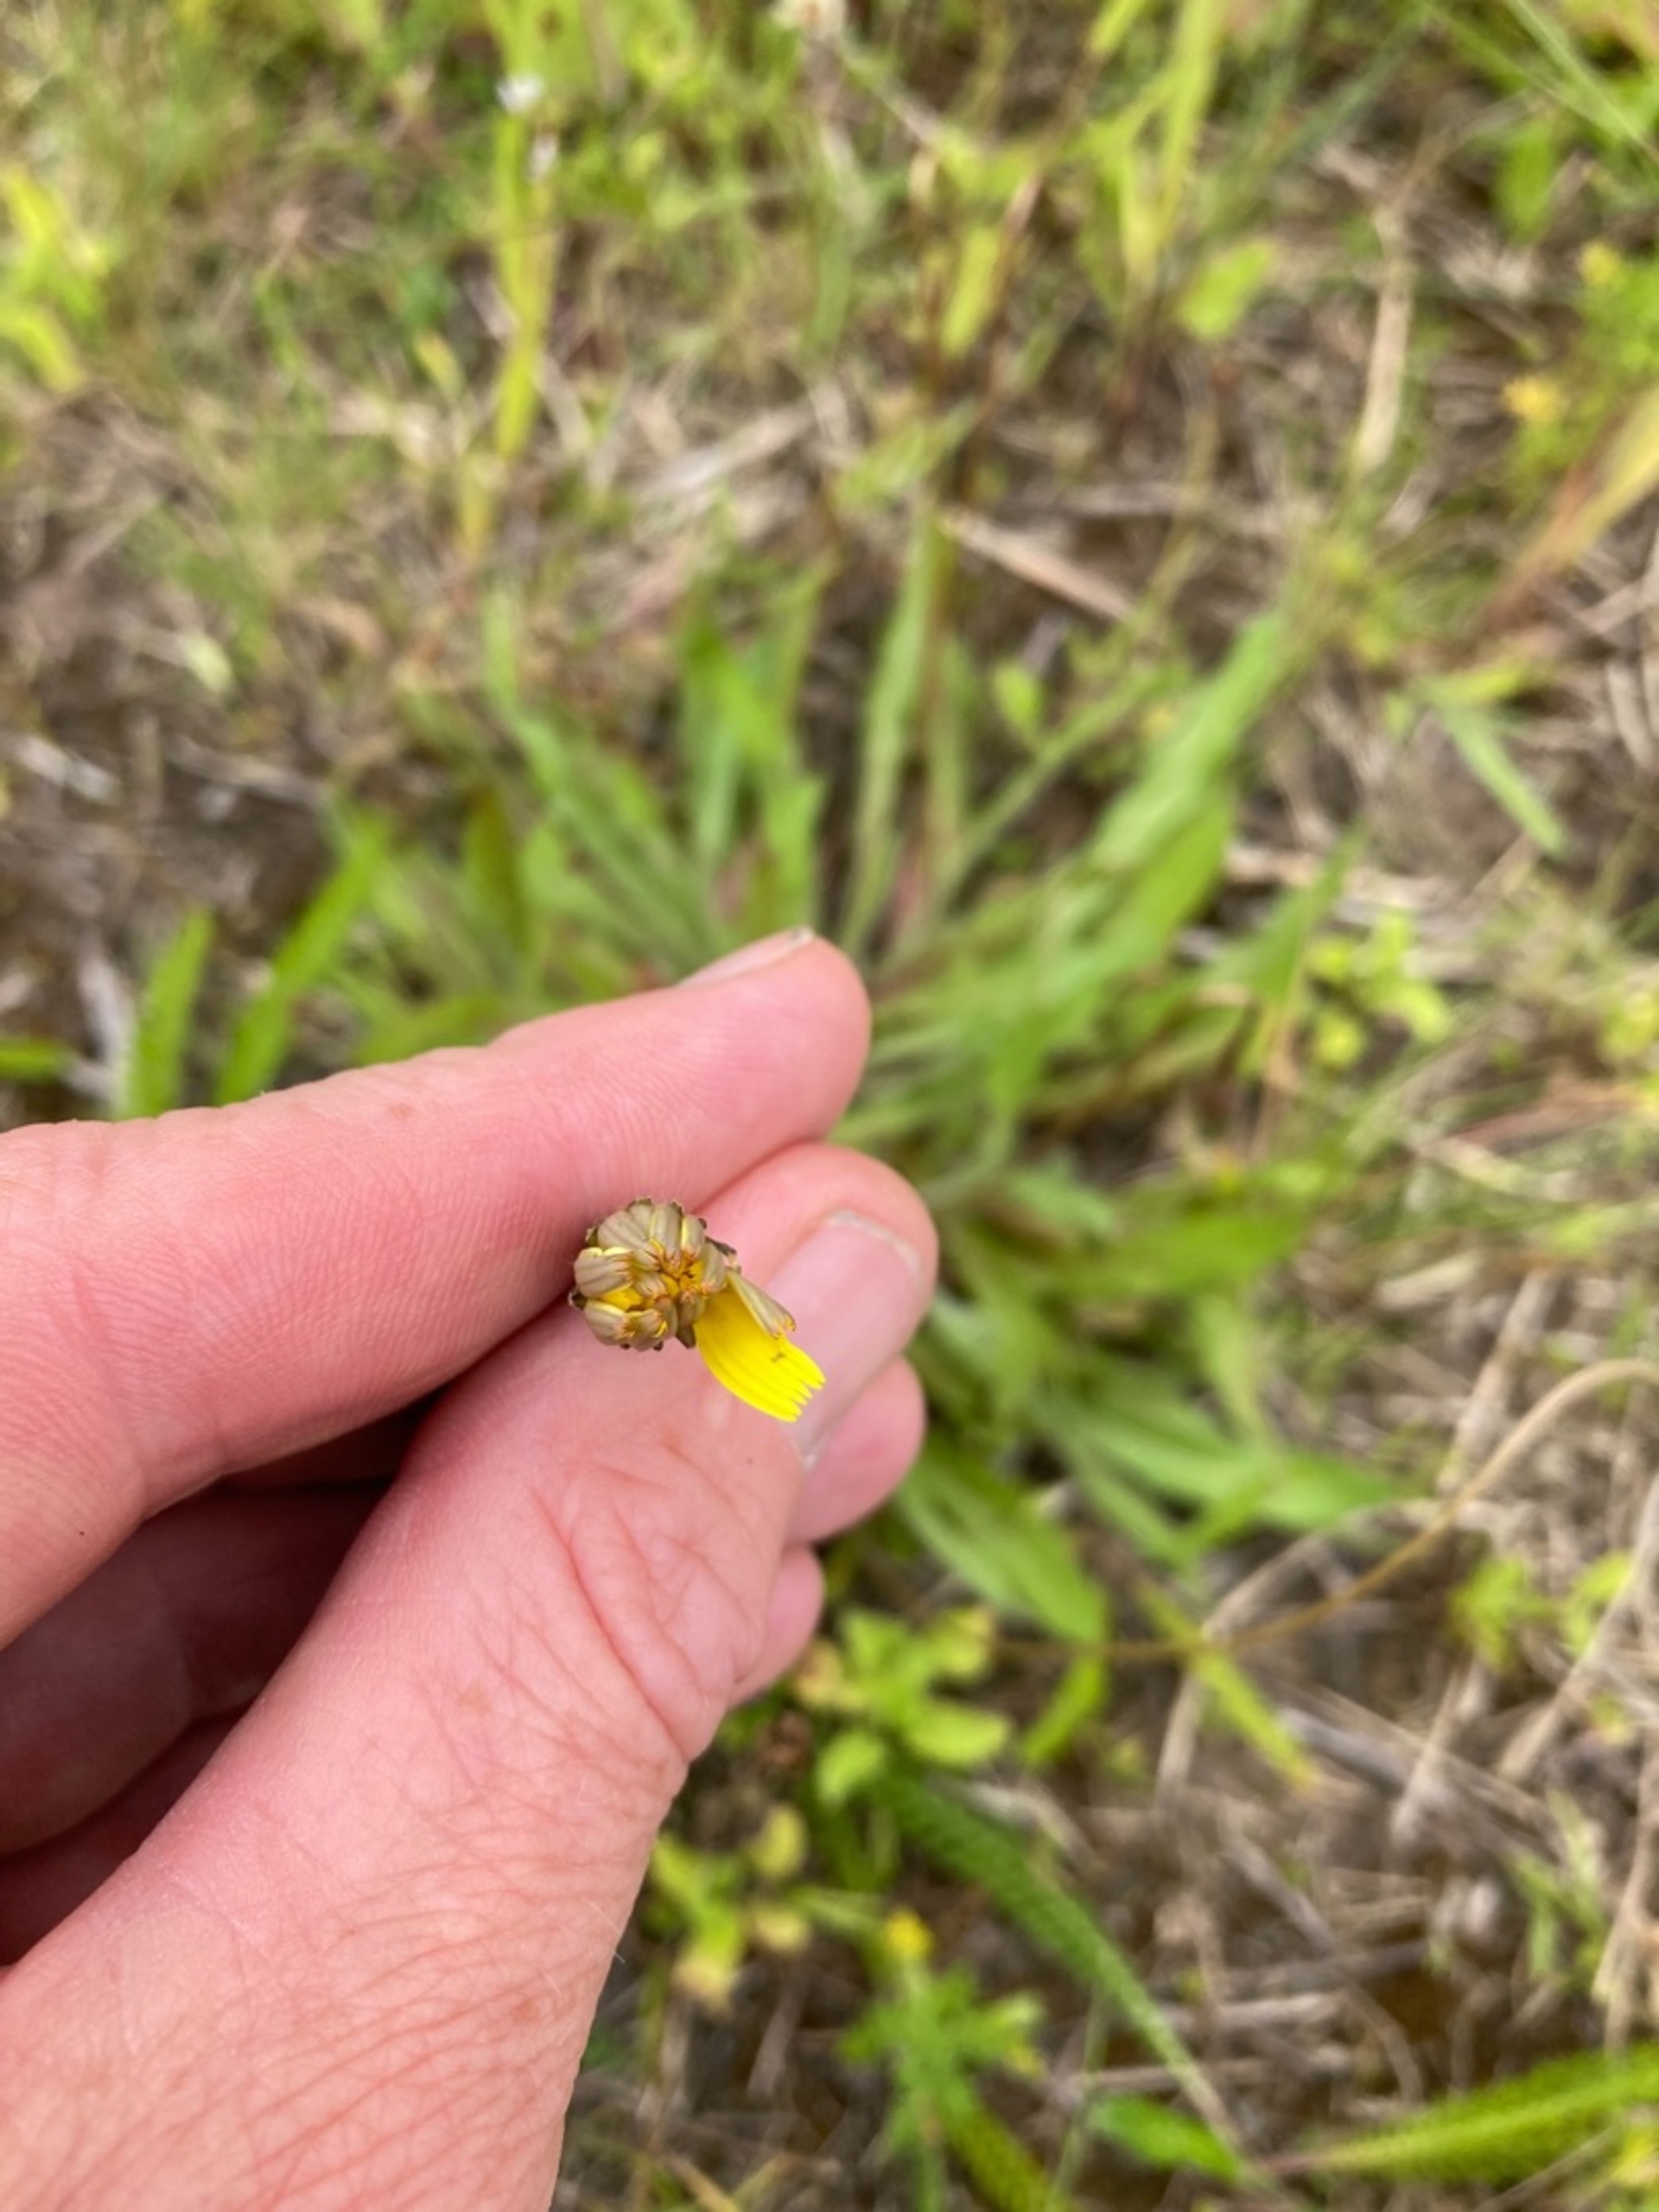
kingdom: Plantae
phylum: Tracheophyta
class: Magnoliopsida
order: Asterales
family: Asteraceae
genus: Thrincia
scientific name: Thrincia saxatilis
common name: Hundesalat
